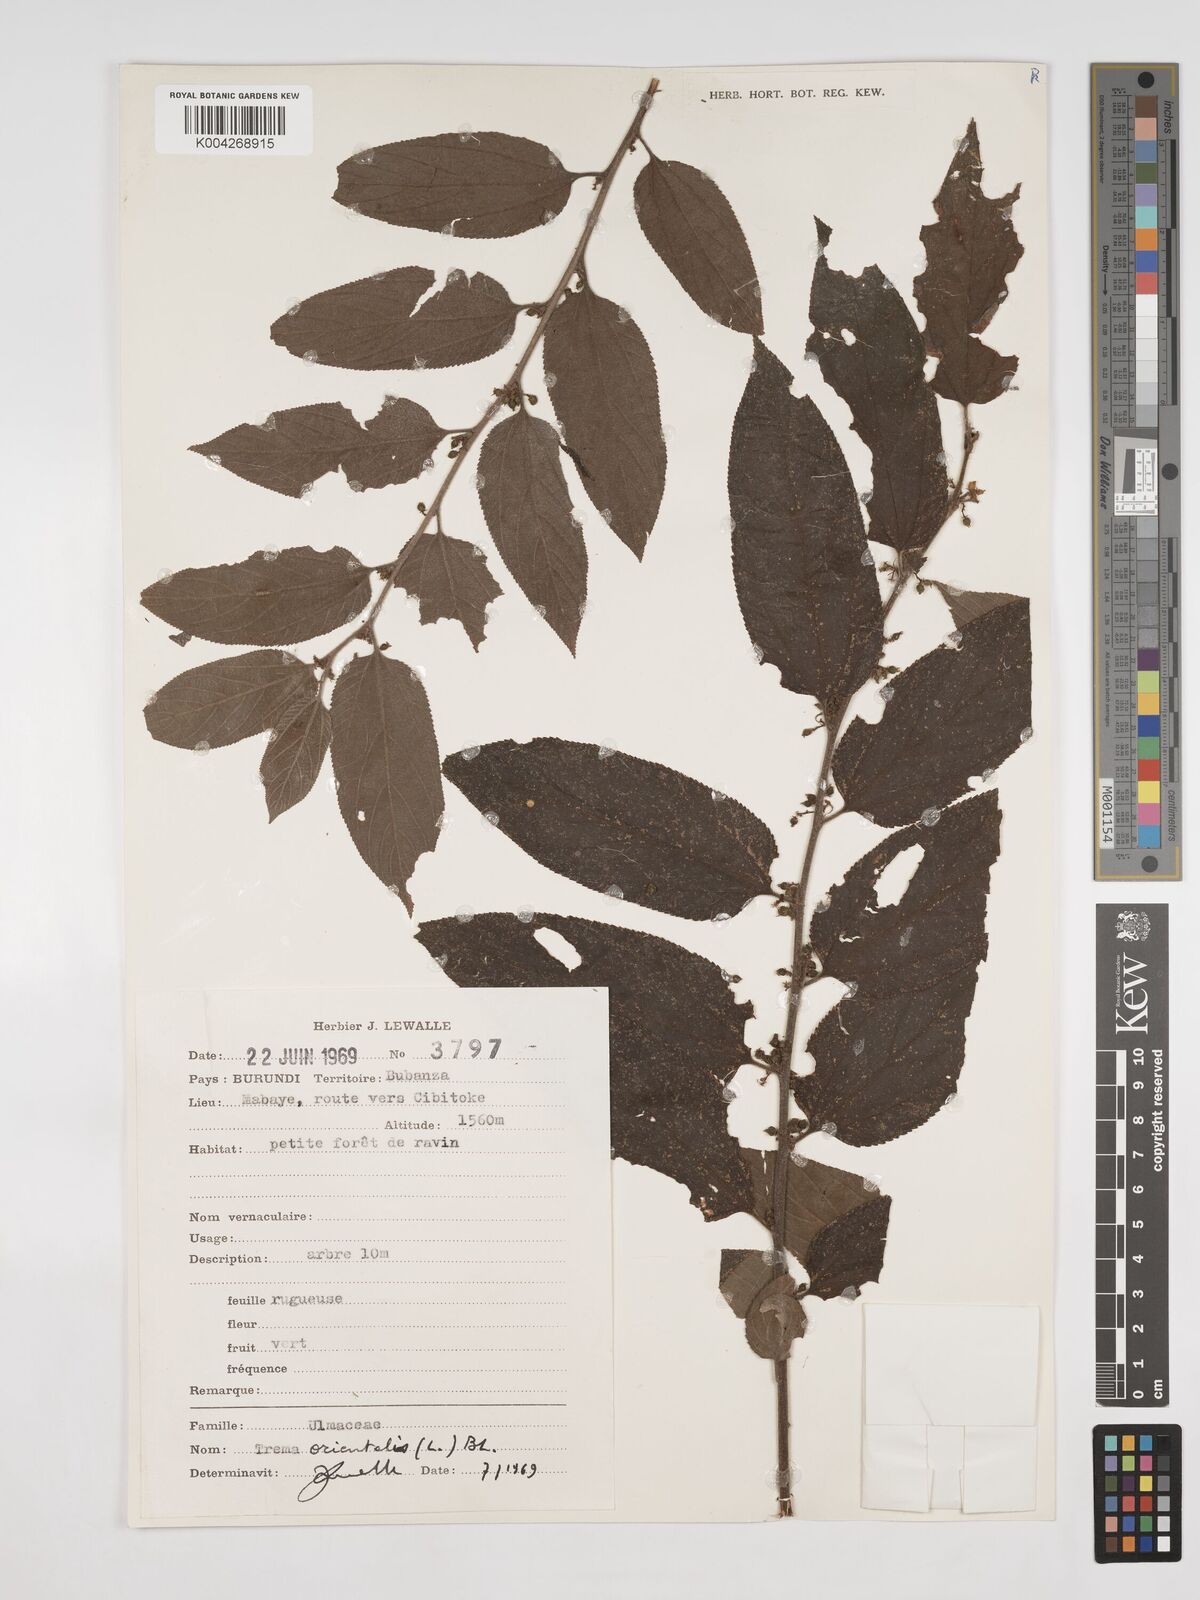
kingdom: Plantae
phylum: Tracheophyta
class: Magnoliopsida
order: Rosales
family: Cannabaceae
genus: Trema
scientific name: Trema orientale
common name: Indian charcoal tree
